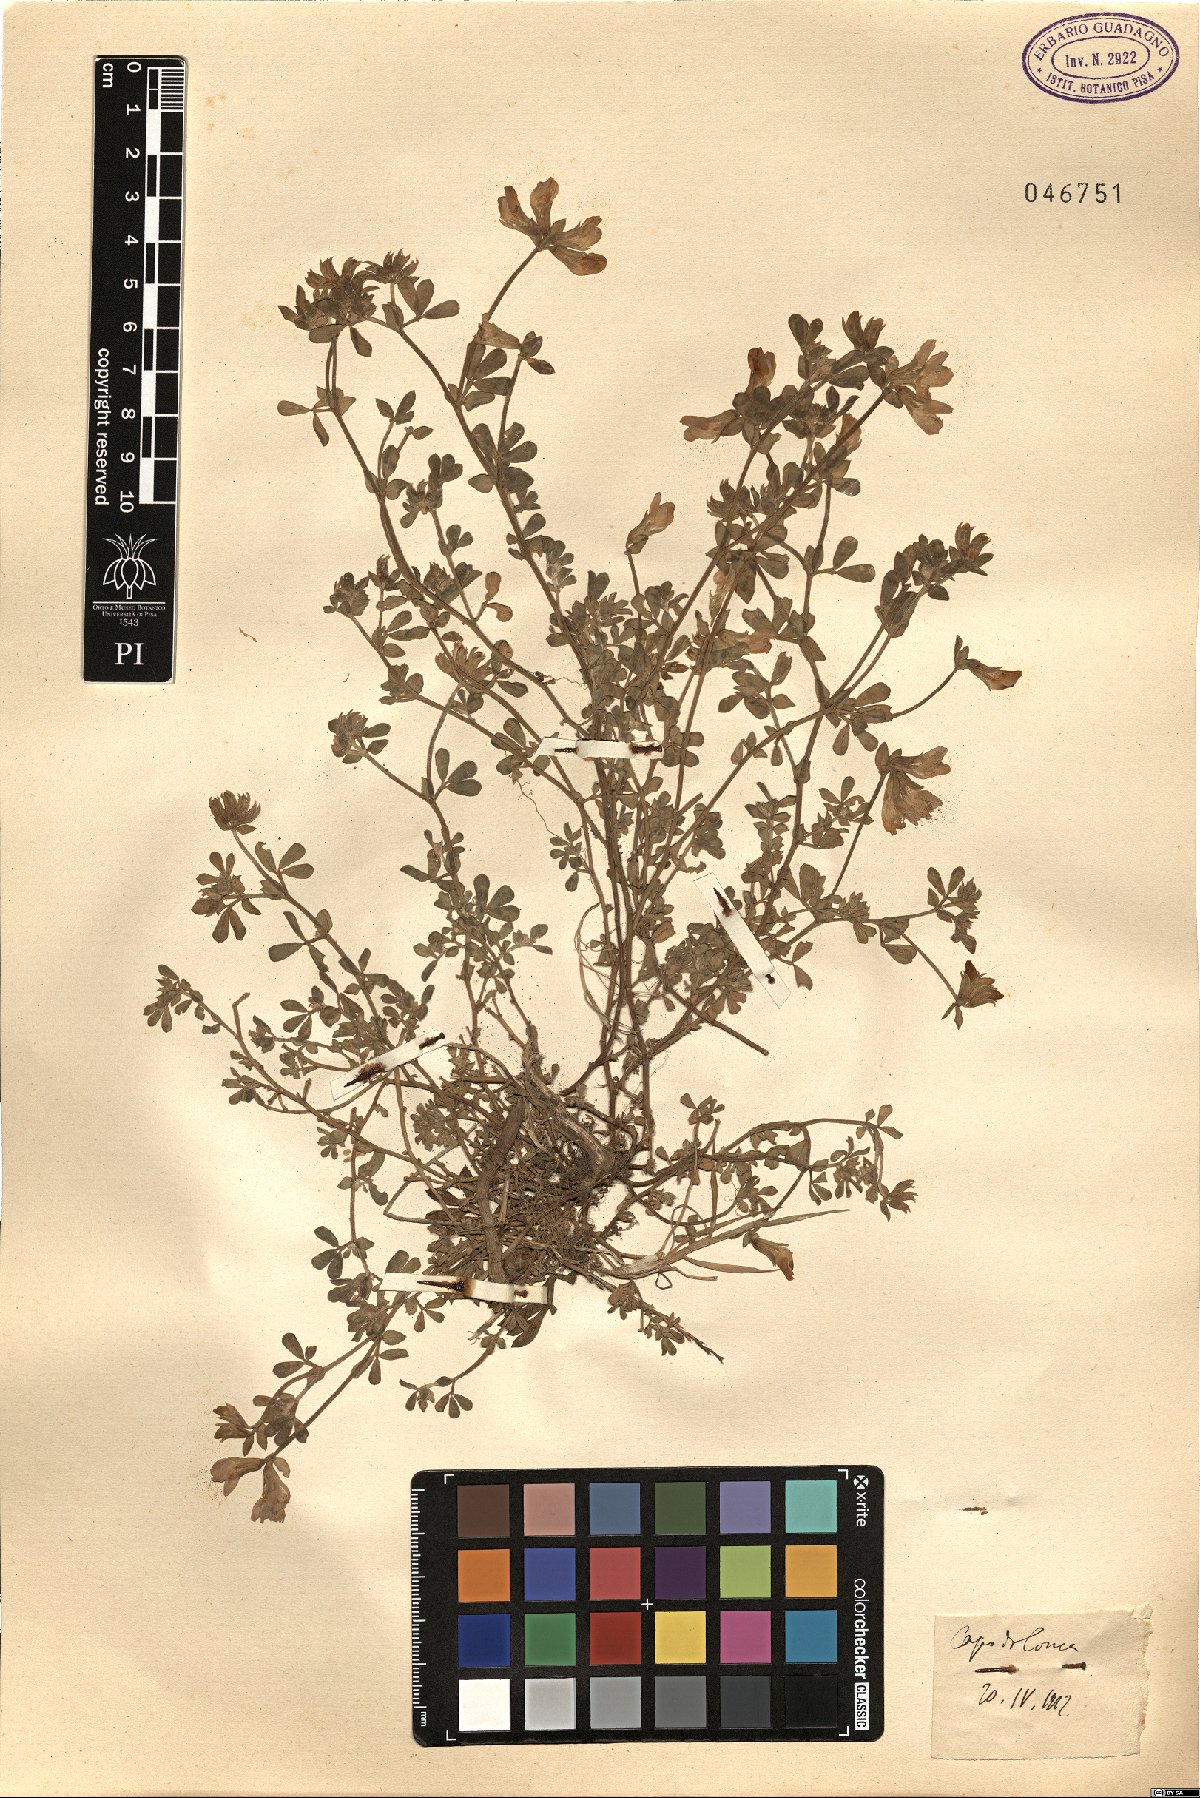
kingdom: Plantae
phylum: Tracheophyta
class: Magnoliopsida
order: Fabales
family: Fabaceae
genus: Lotus
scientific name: Lotus
